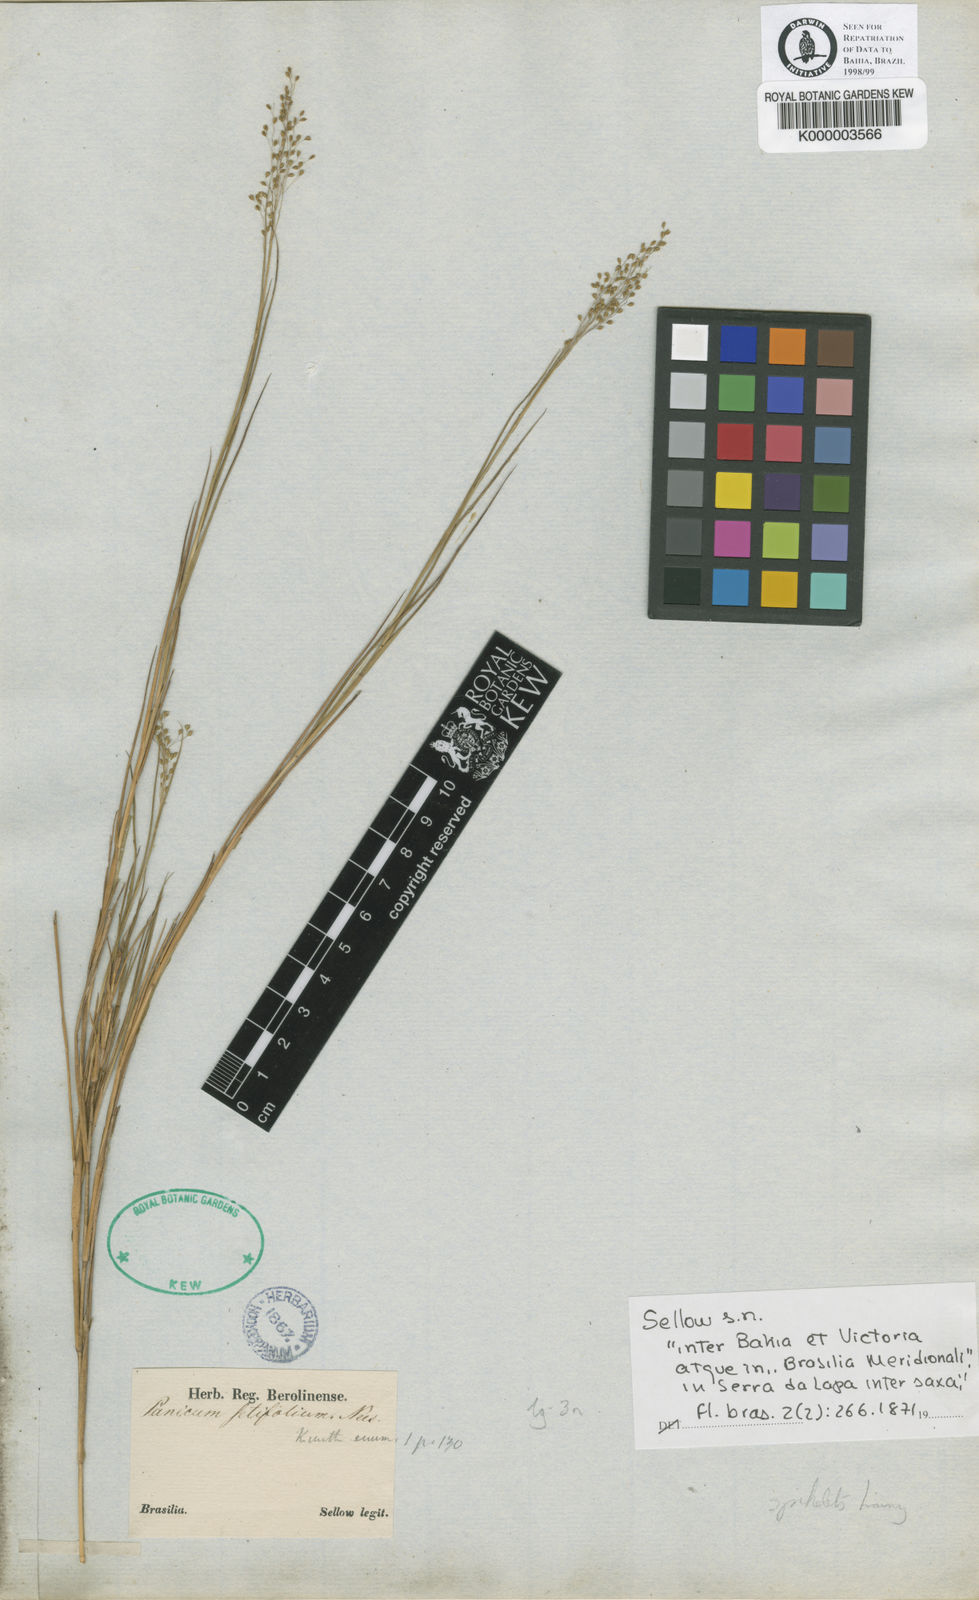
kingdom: Plantae
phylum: Tracheophyta
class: Liliopsida
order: Poales
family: Poaceae
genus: Panicum
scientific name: Panicum rupestre
